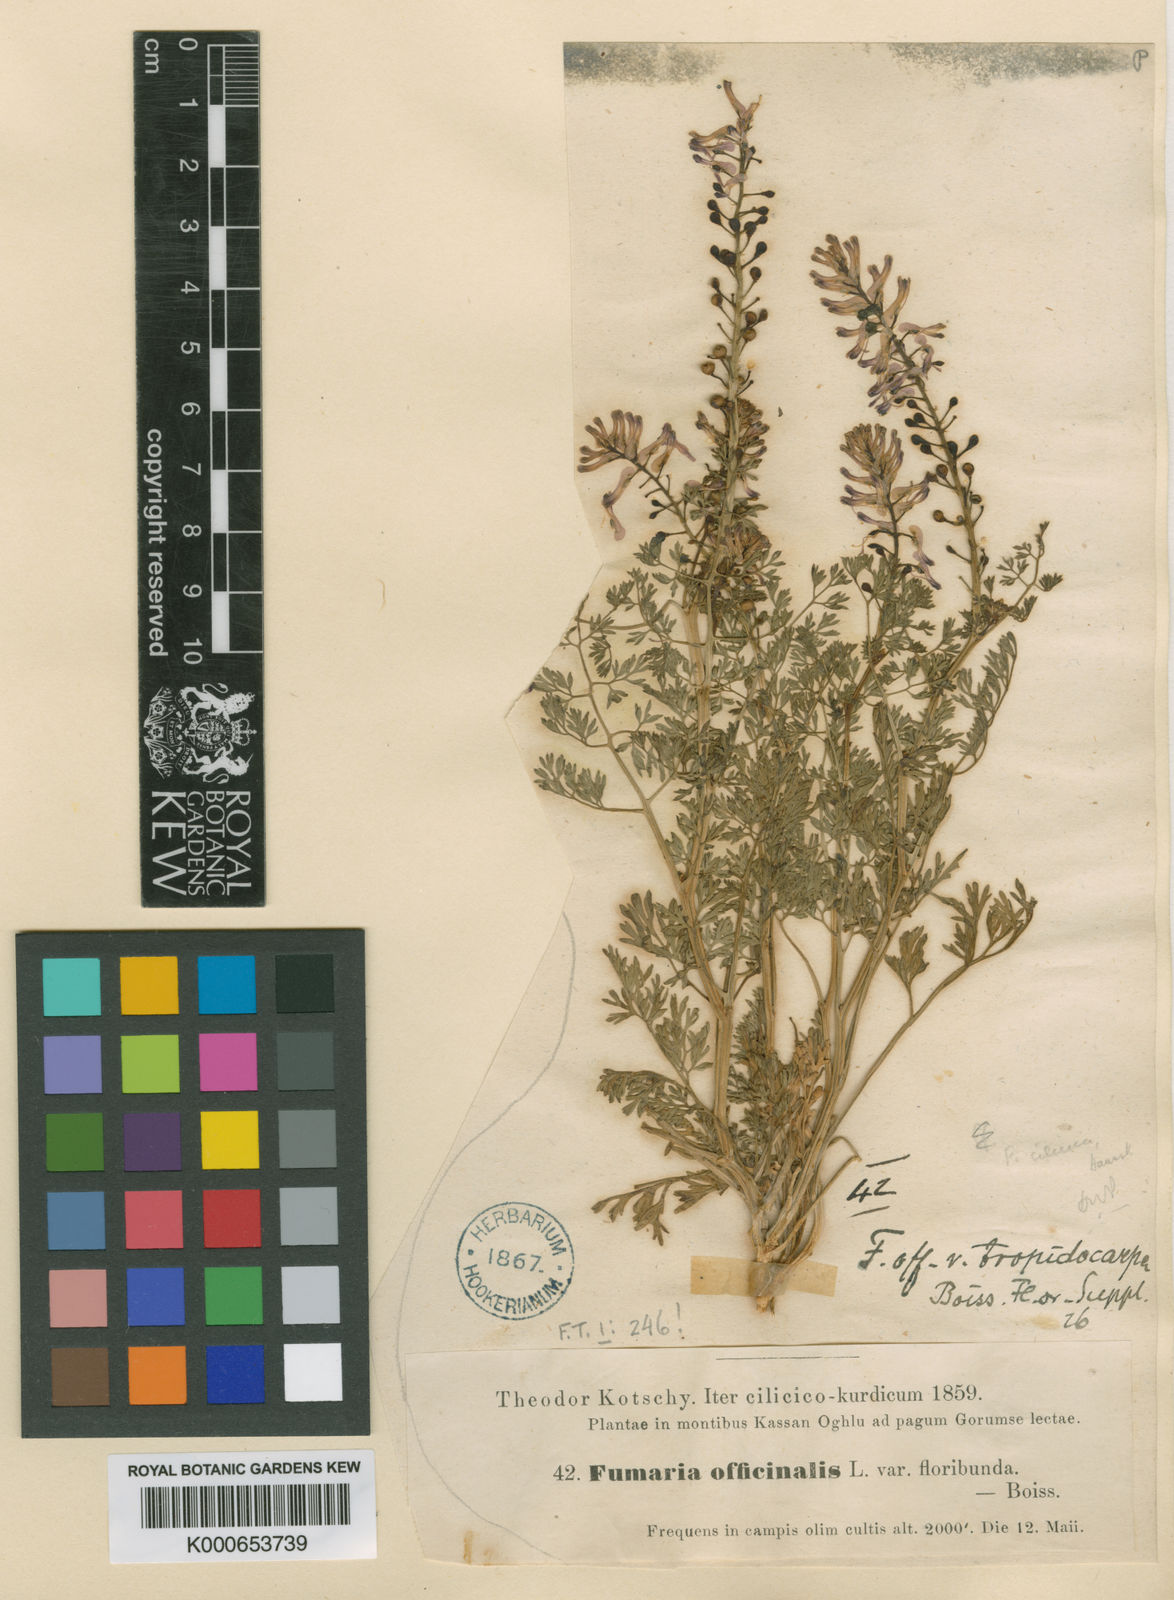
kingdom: Plantae
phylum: Tracheophyta
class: Magnoliopsida
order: Ranunculales
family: Papaveraceae
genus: Fumaria
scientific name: Fumaria cilicica
